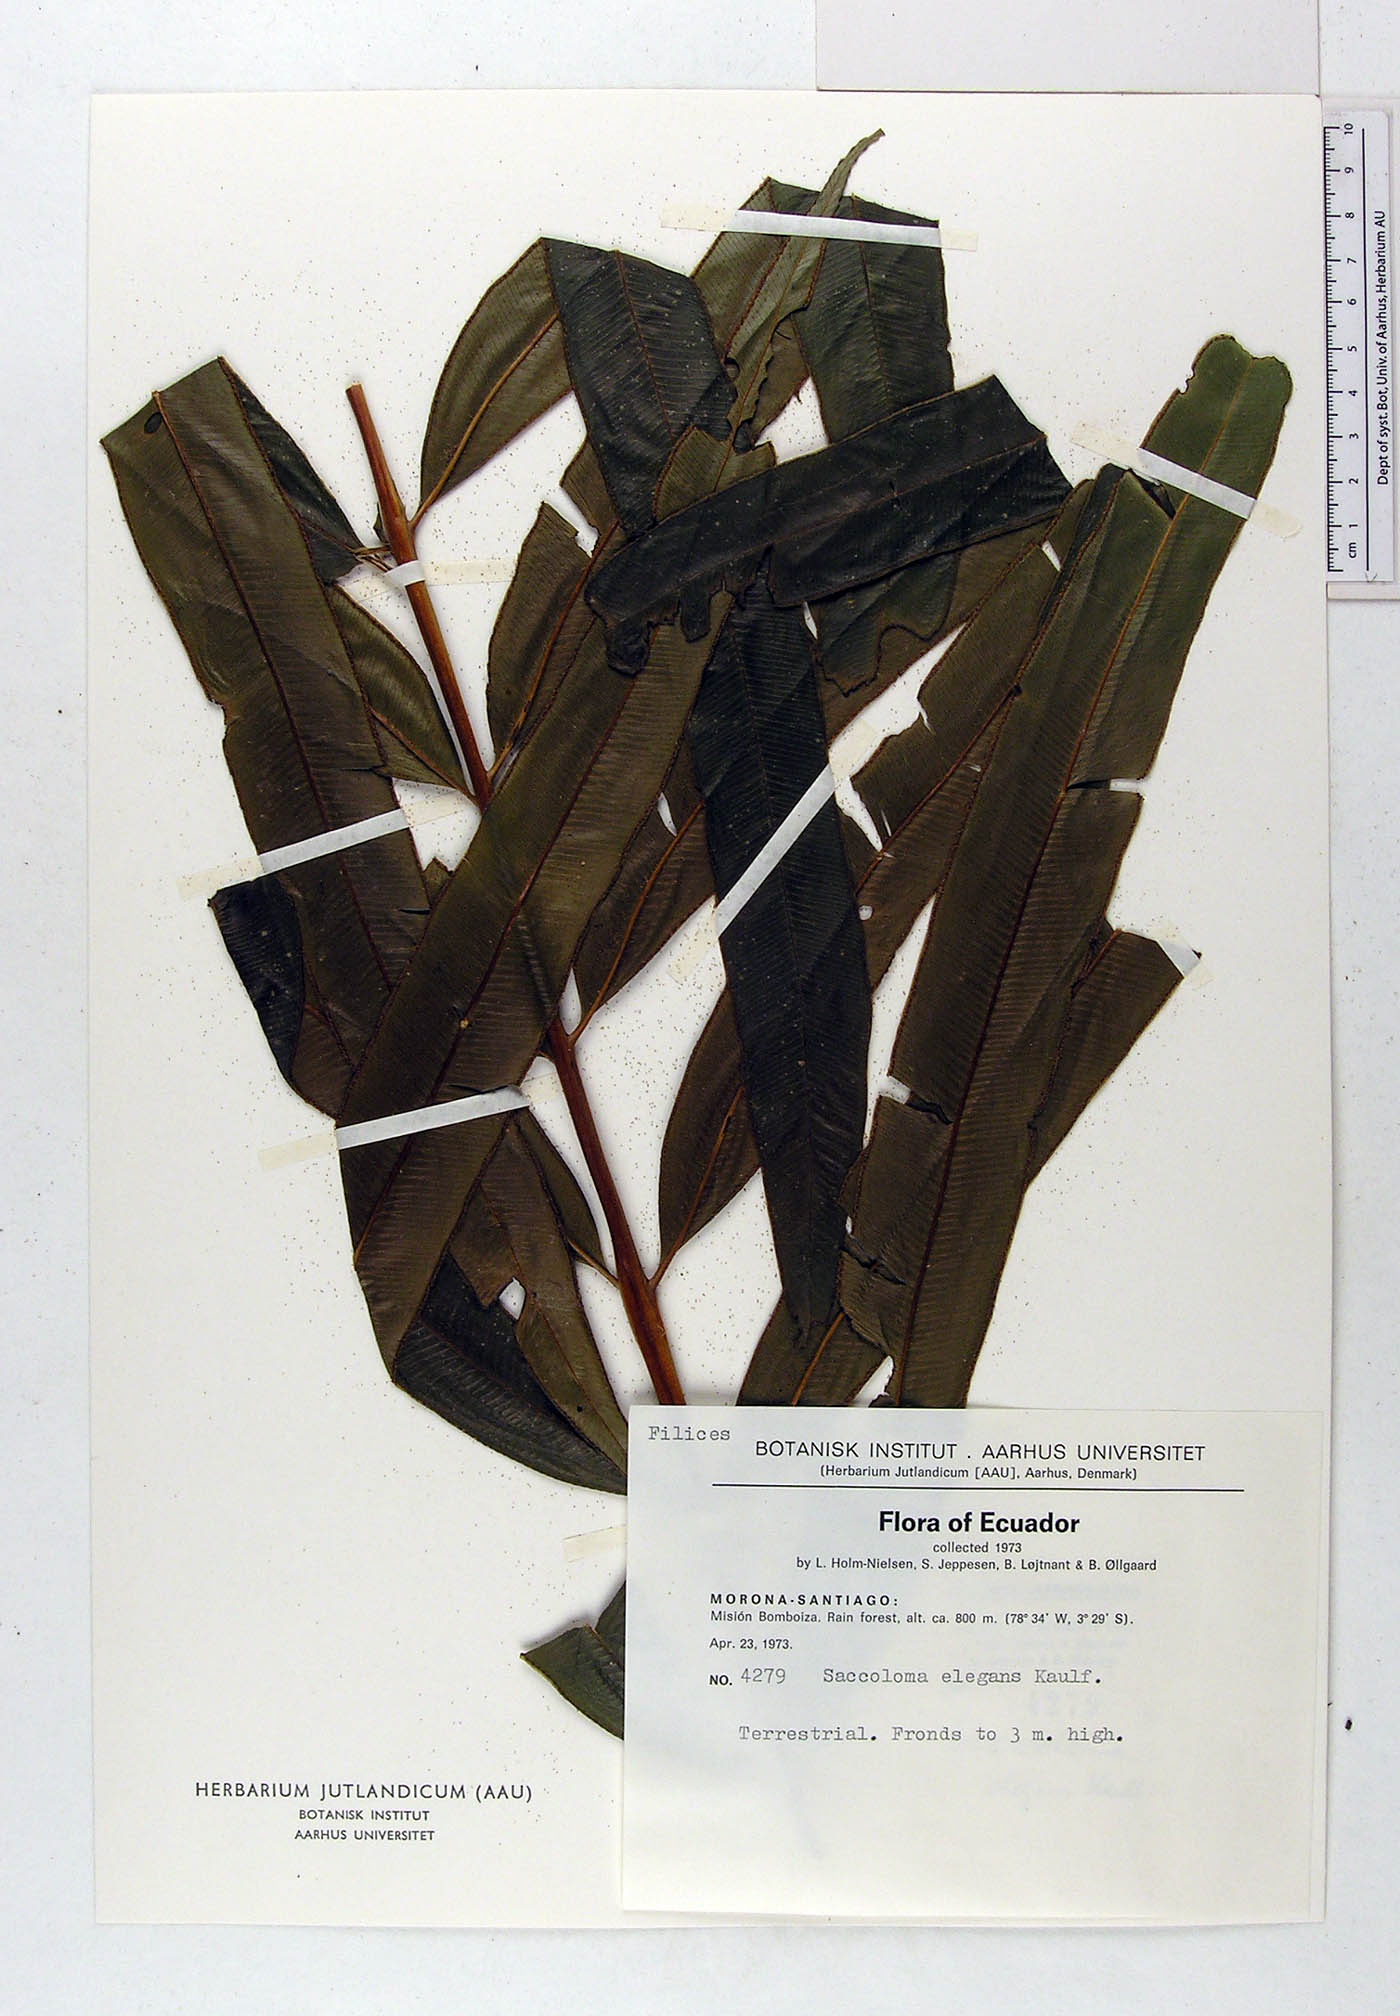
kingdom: Plantae
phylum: Tracheophyta
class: Polypodiopsida
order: Polypodiales
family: Saccolomataceae
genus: Saccoloma
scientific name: Saccoloma elegans
